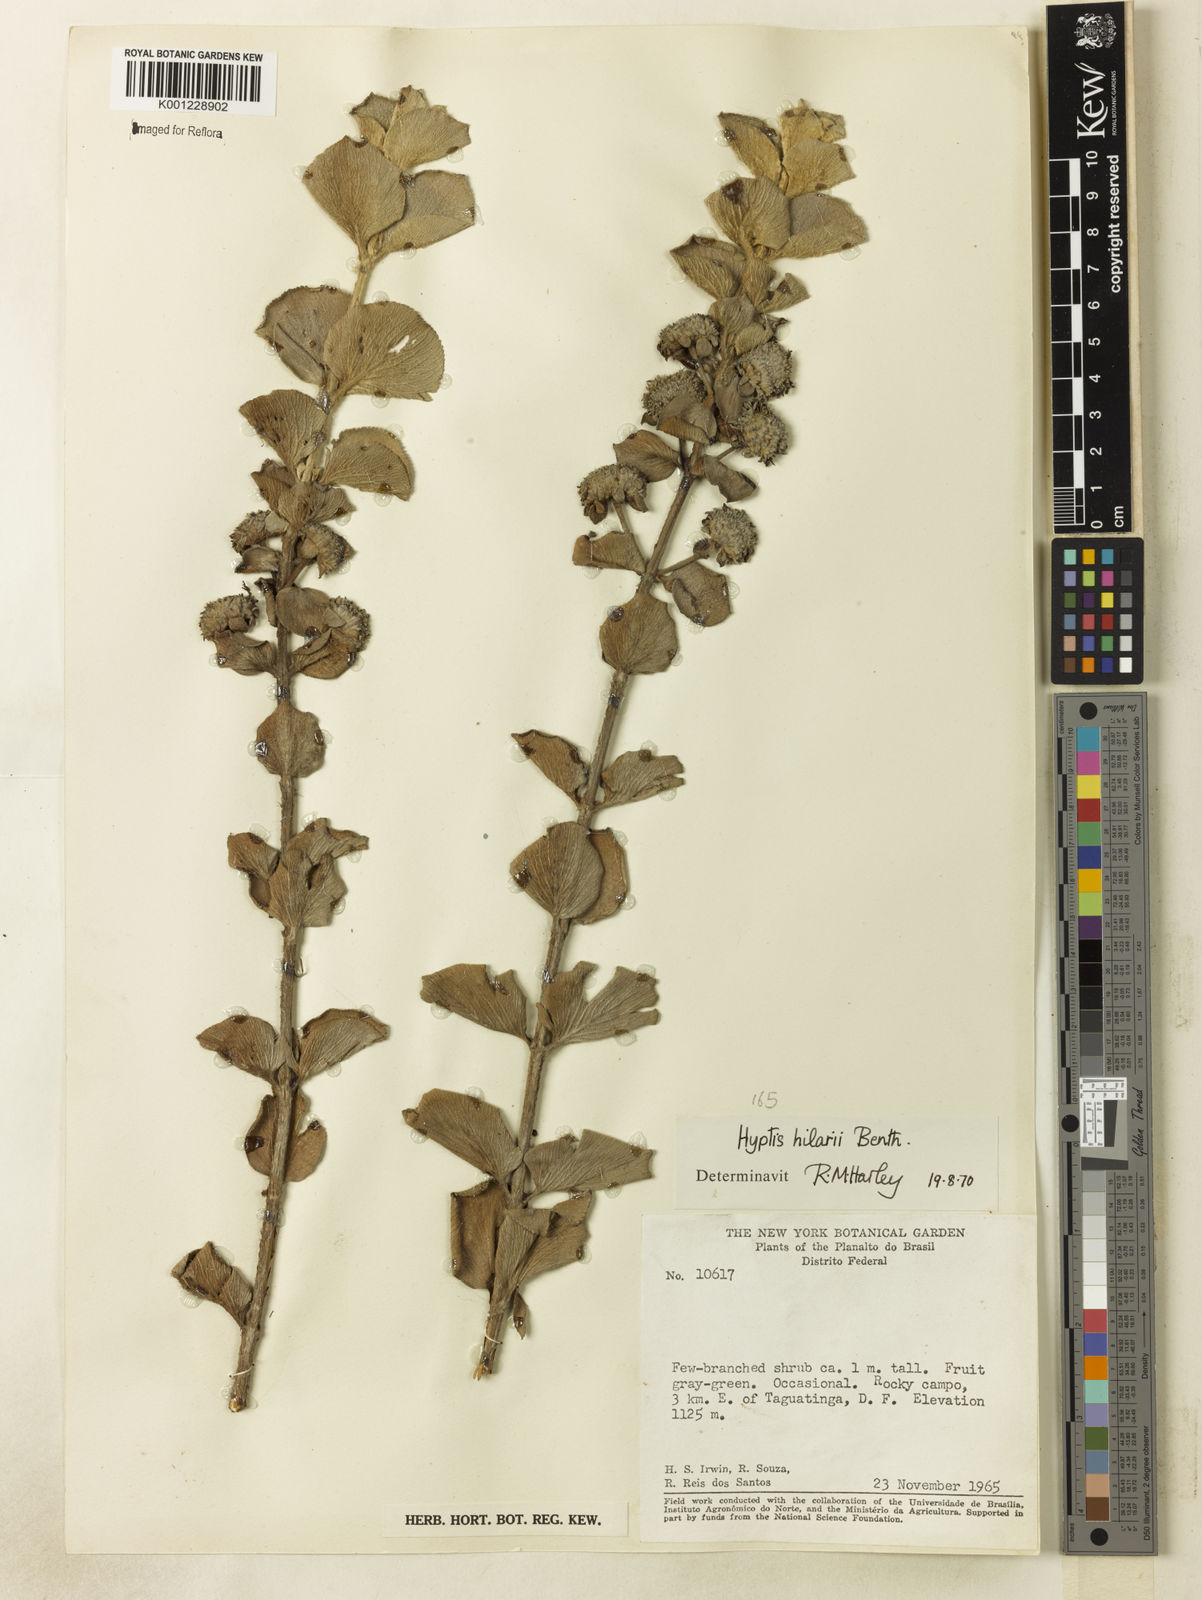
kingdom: Plantae
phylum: Tracheophyta
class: Magnoliopsida
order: Lamiales
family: Lamiaceae
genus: Hyptis
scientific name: Hyptis hilarii
